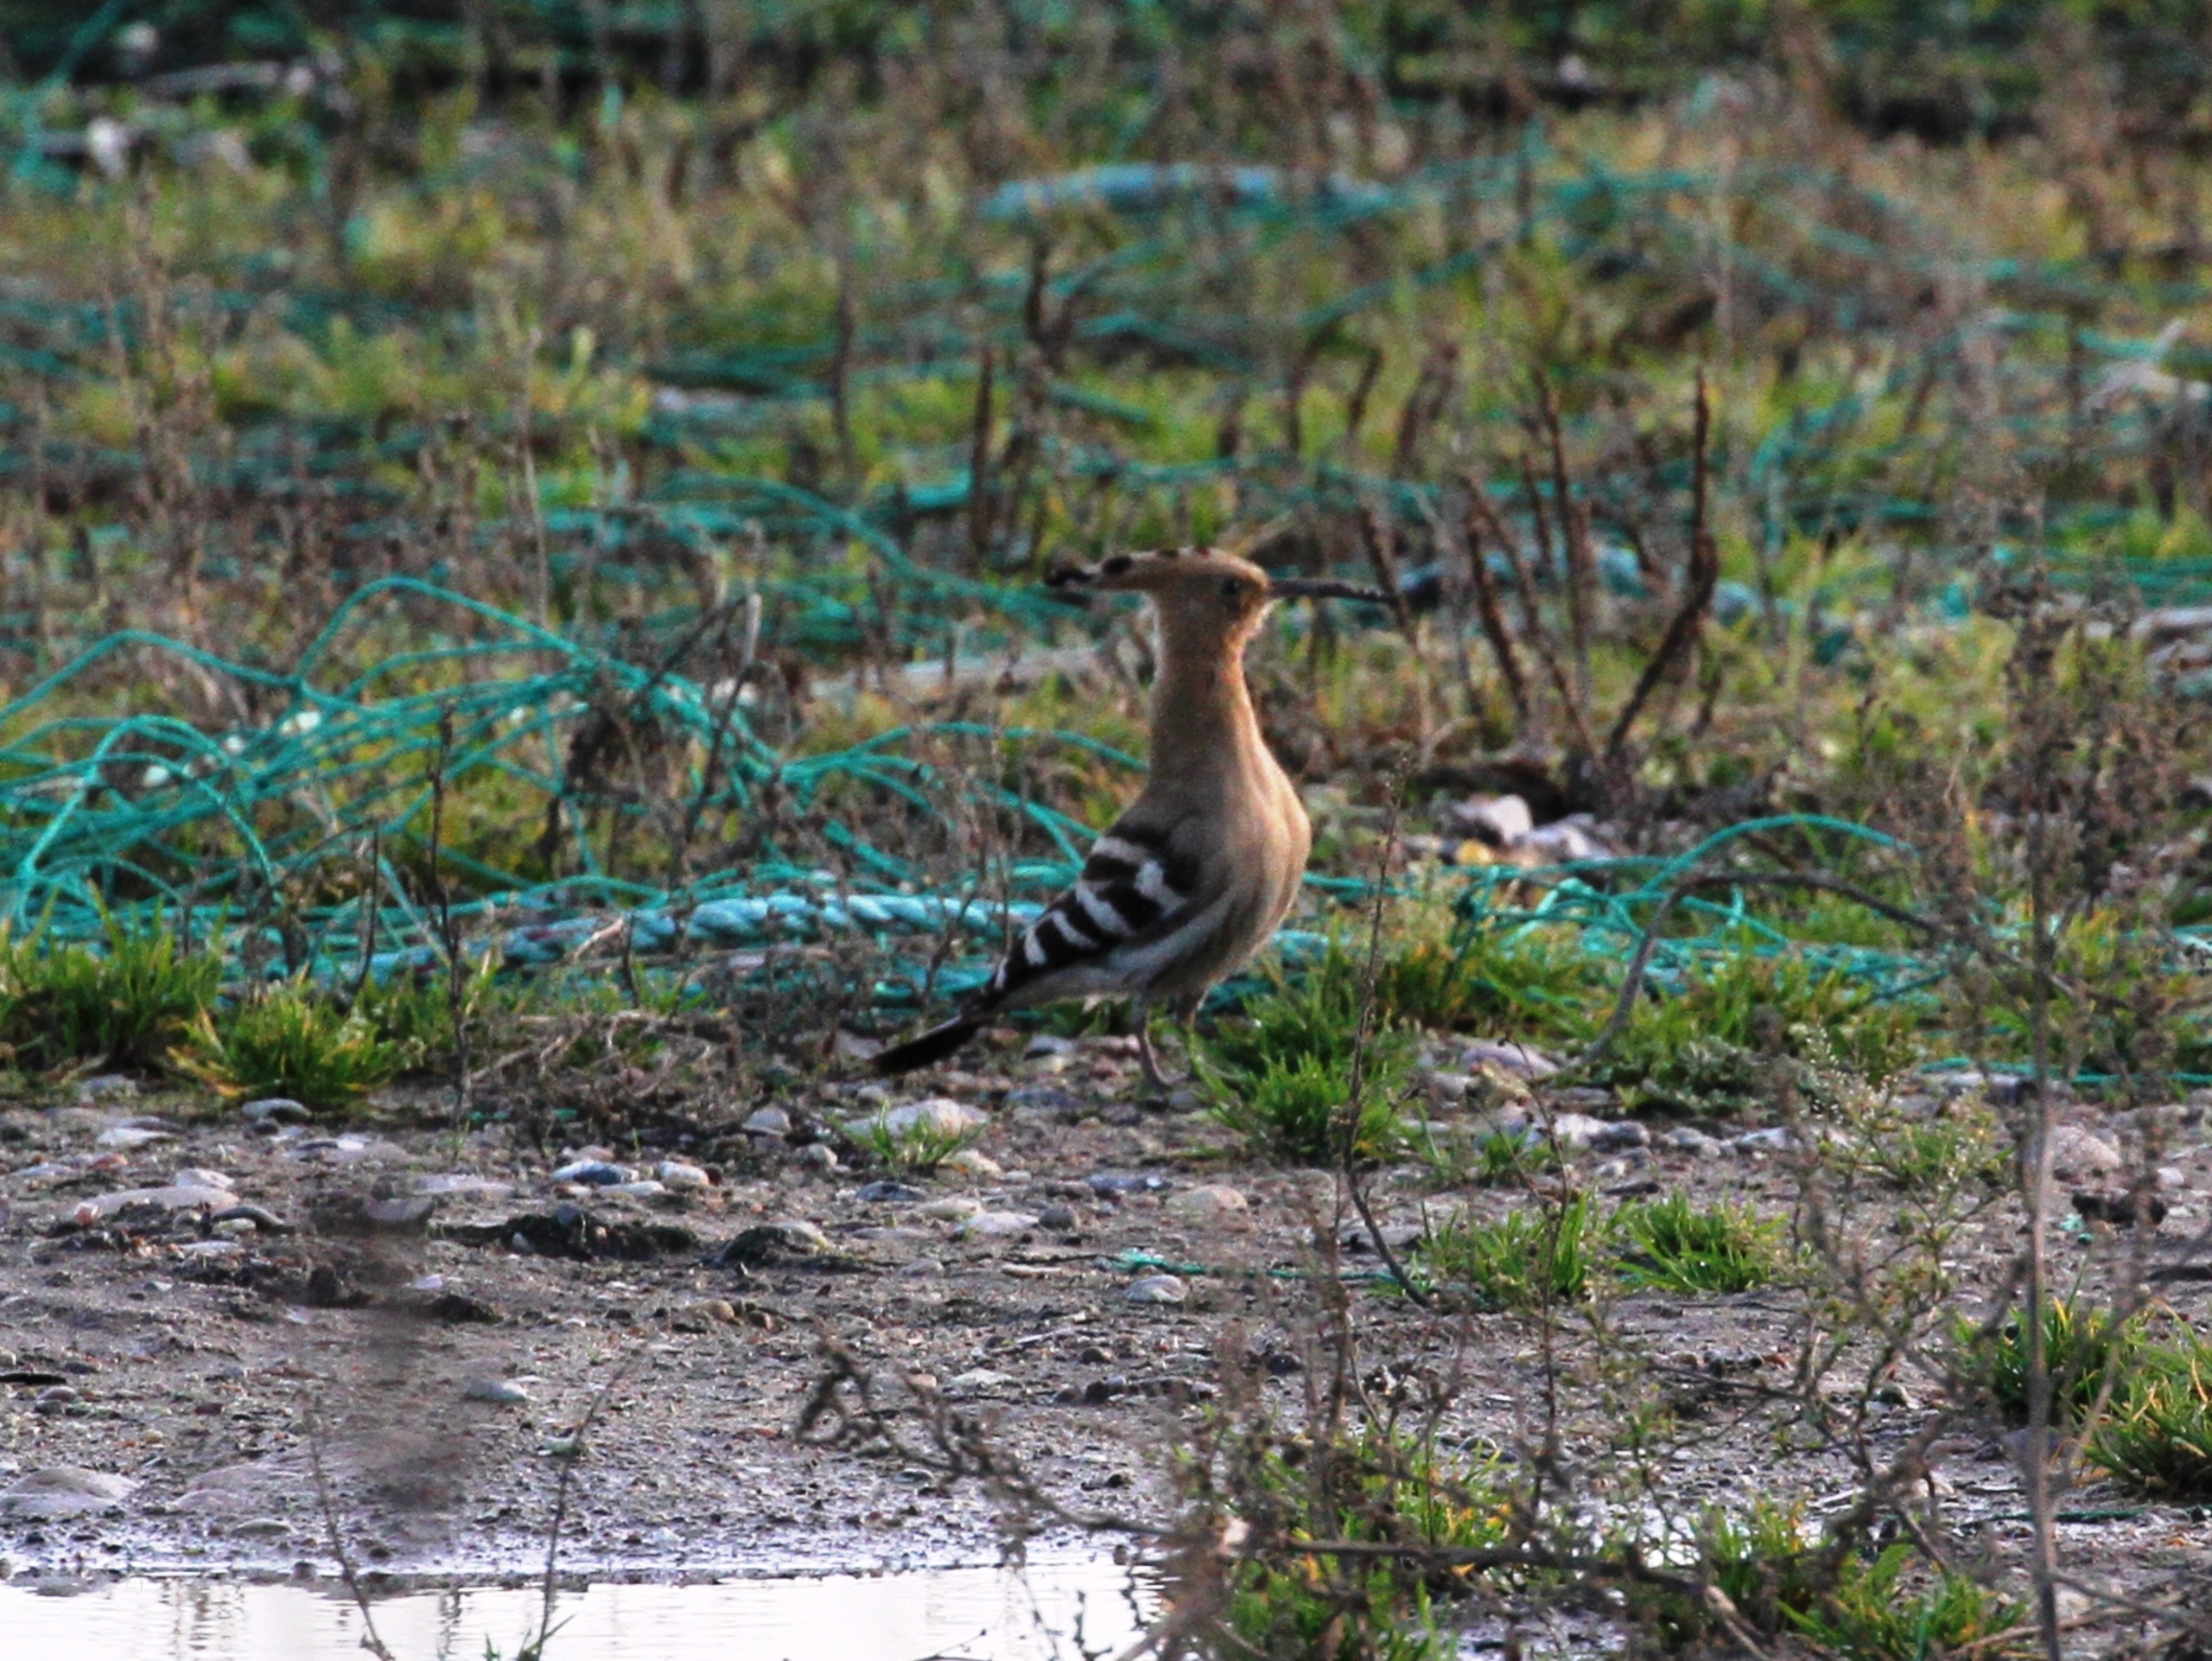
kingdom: Animalia
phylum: Chordata
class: Aves
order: Bucerotiformes
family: Upupidae
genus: Upupa
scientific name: Upupa epops
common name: Hærfugl
